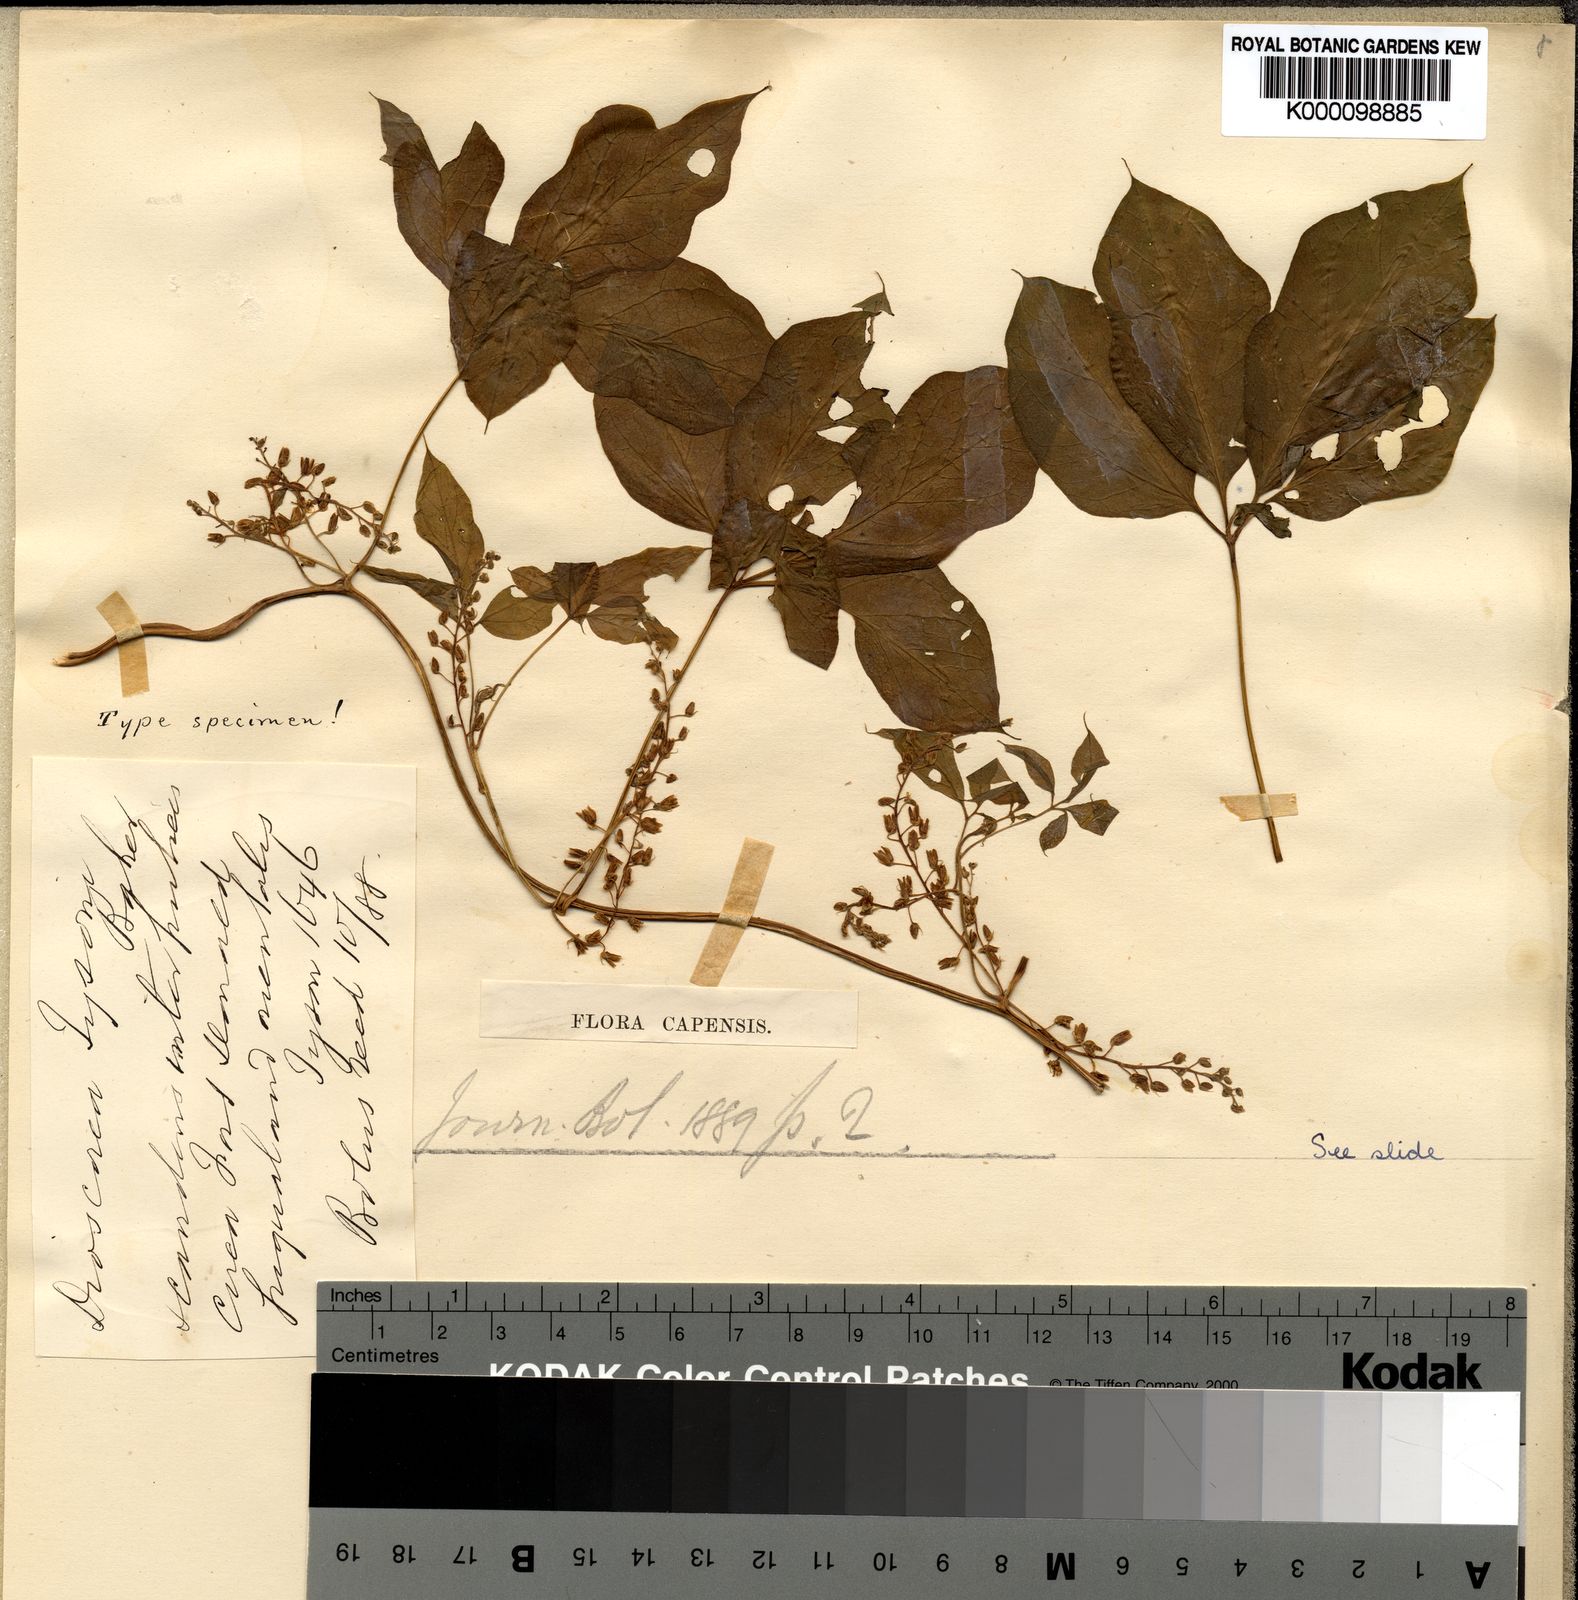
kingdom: Plantae
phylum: Tracheophyta
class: Liliopsida
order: Dioscoreales
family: Dioscoreaceae
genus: Dioscorea
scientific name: Dioscorea retusa
